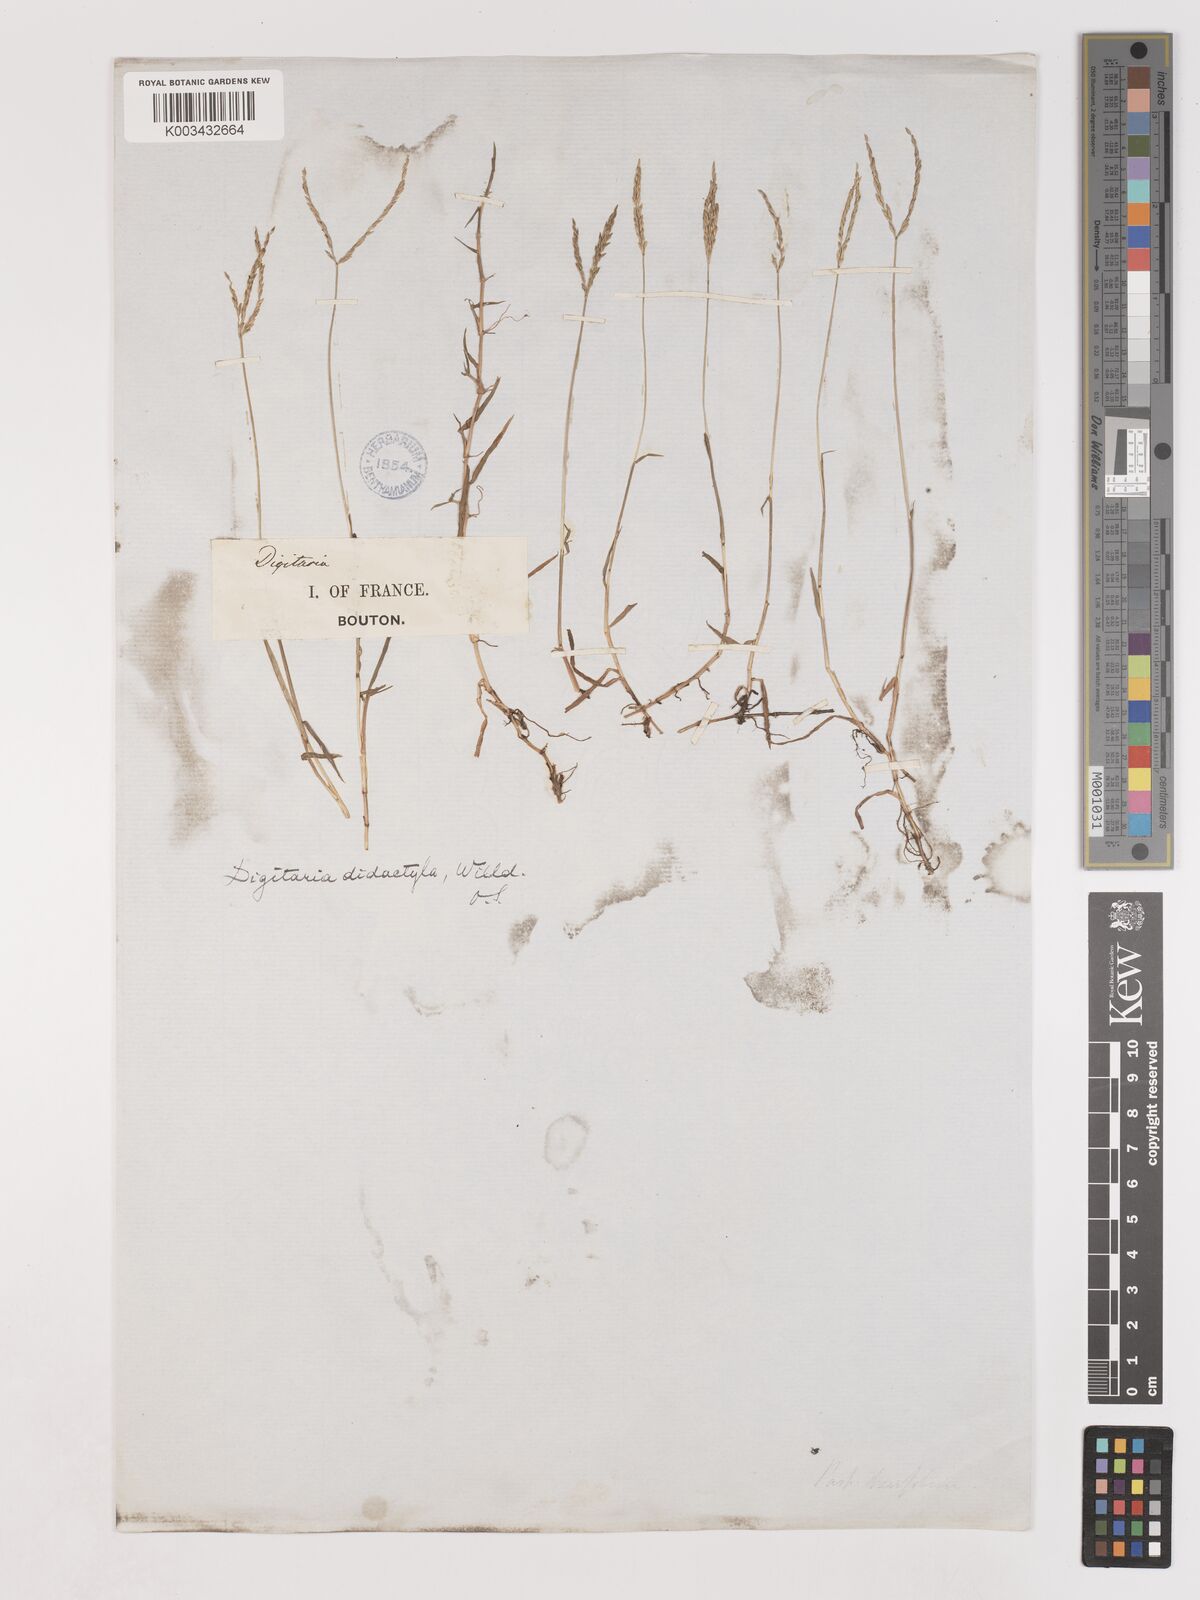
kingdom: Plantae
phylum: Tracheophyta
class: Liliopsida
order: Poales
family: Poaceae
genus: Digitaria
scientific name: Digitaria didactyla
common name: Blue couch
